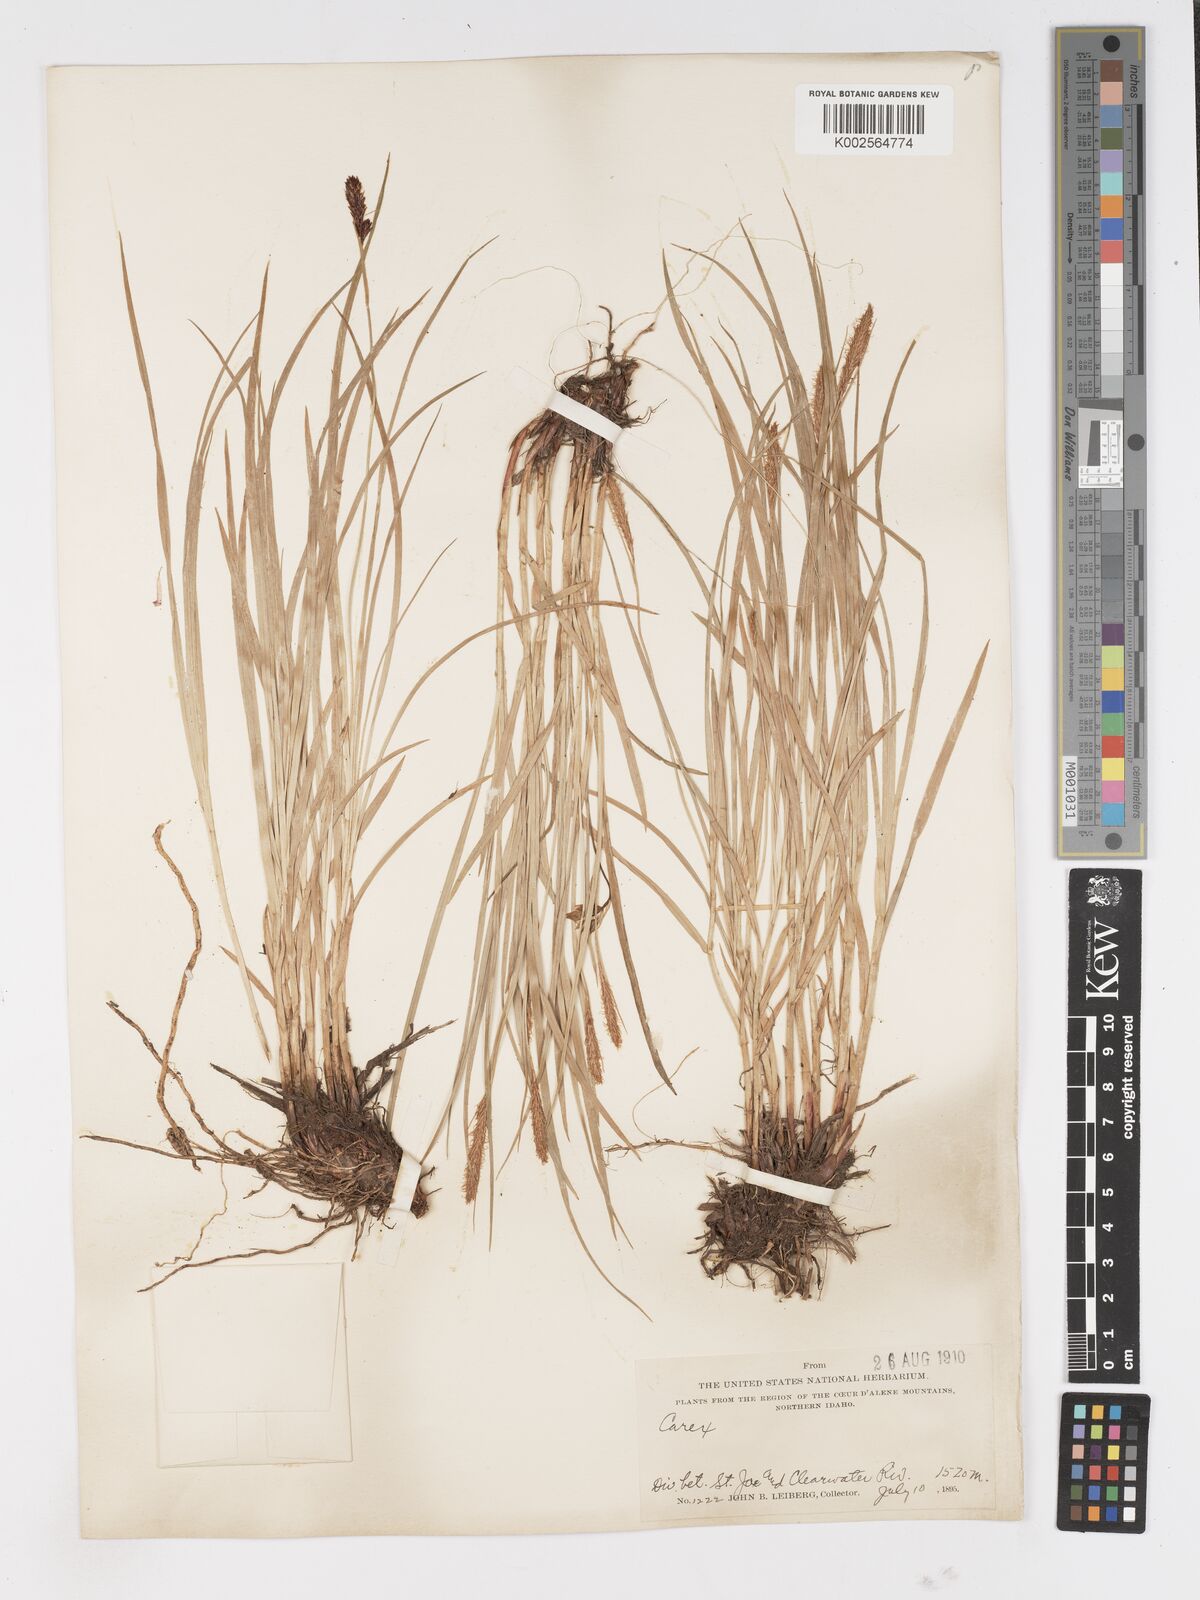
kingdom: Plantae
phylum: Tracheophyta
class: Liliopsida
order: Poales
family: Cyperaceae
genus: Carex
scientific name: Carex
